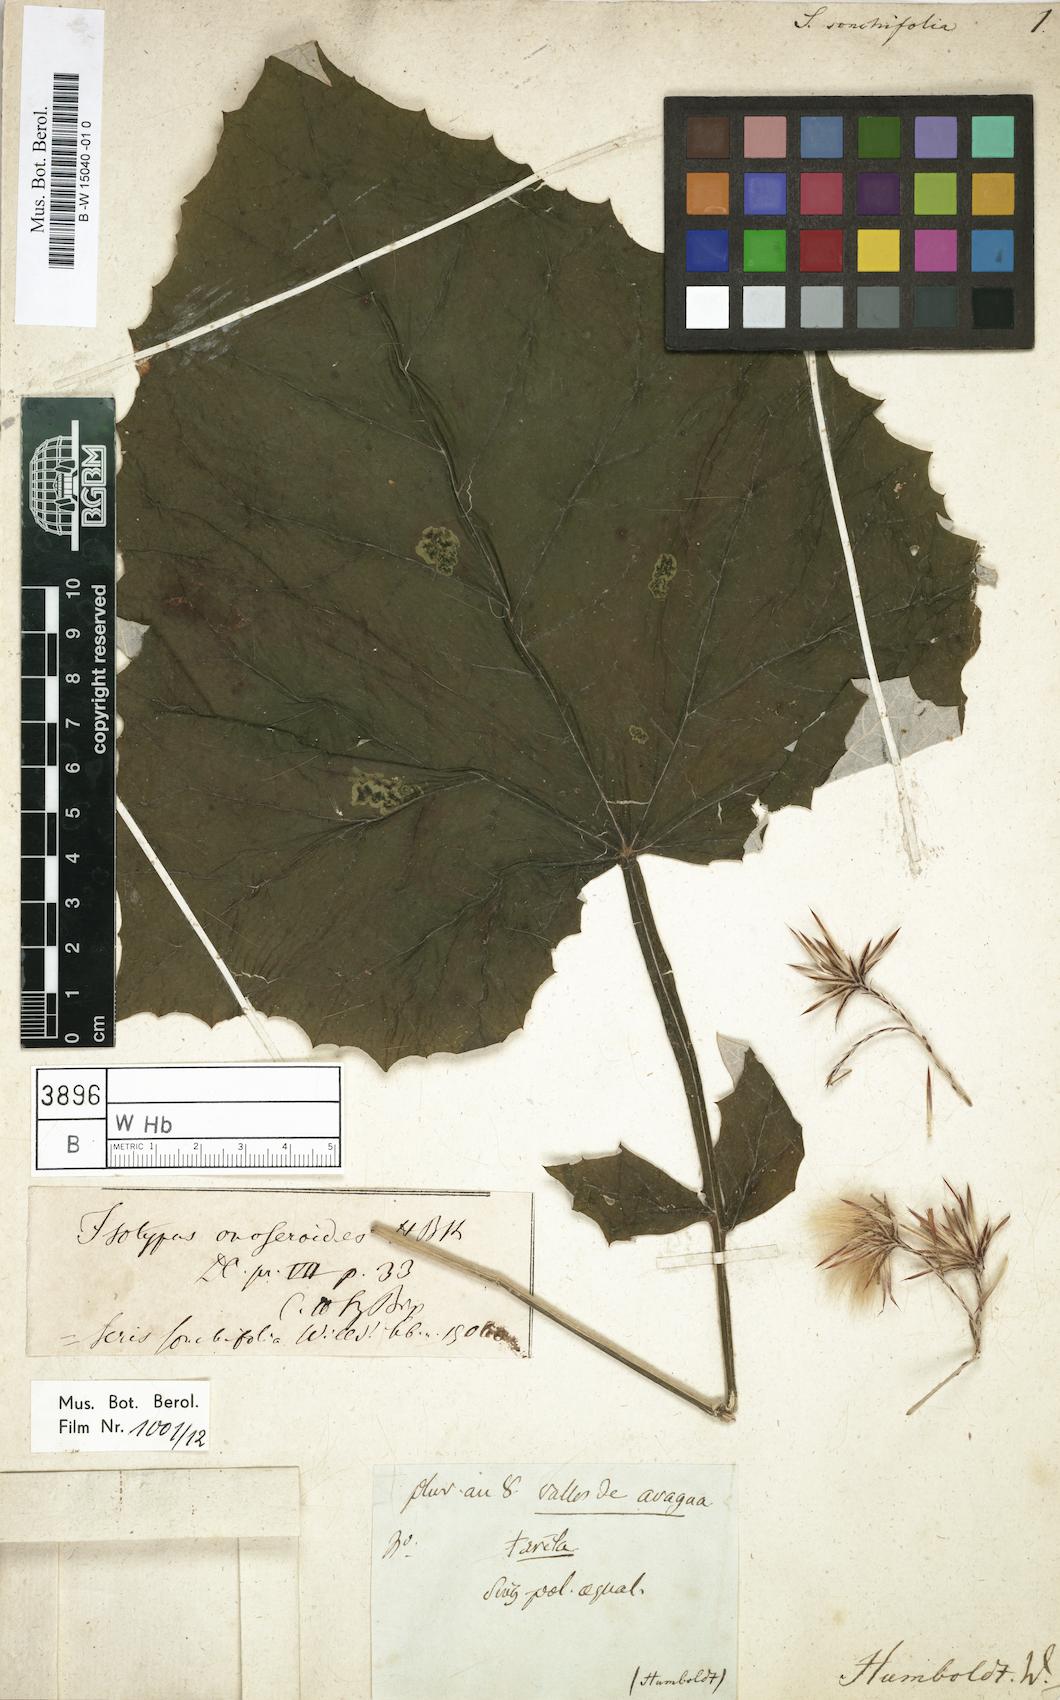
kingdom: Plantae
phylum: Tracheophyta
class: Magnoliopsida
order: Asterales
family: Asteraceae
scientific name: Asteraceae
